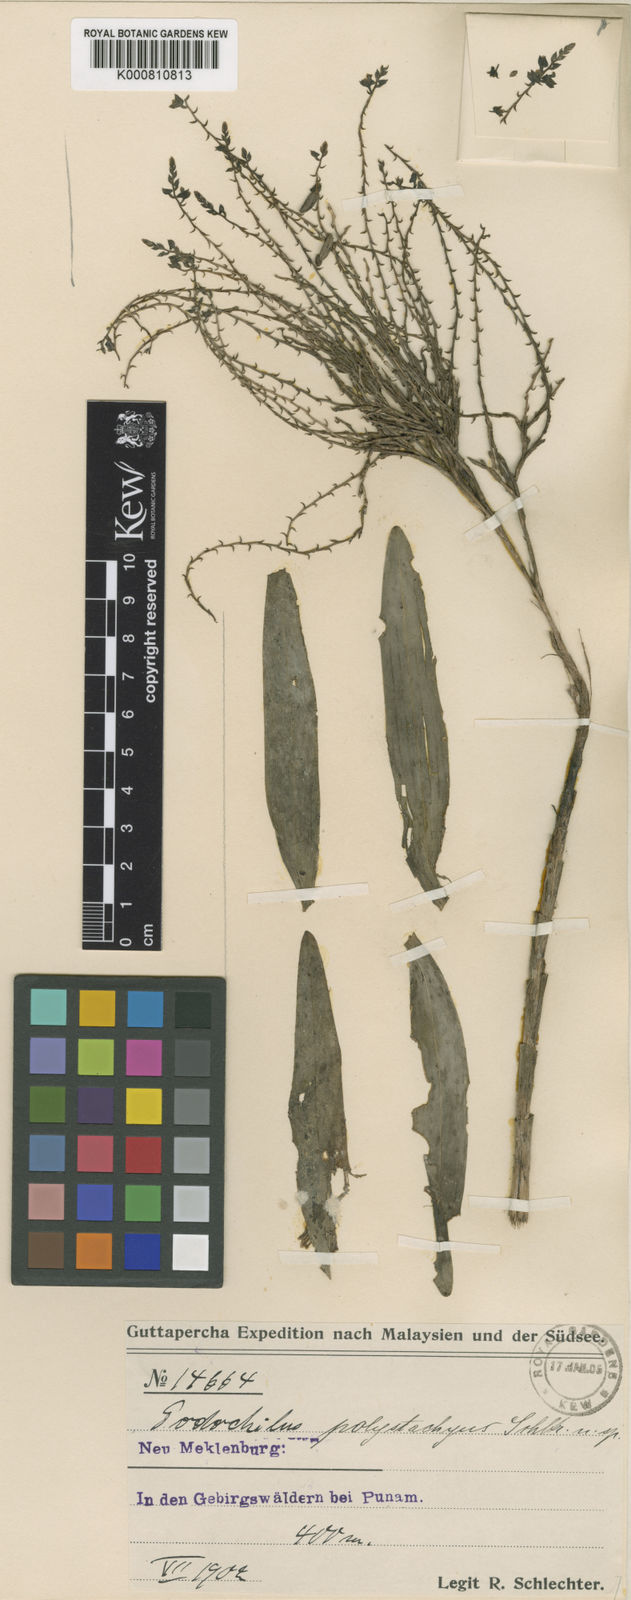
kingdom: Plantae
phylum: Tracheophyta
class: Liliopsida
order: Asparagales
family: Orchidaceae
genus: Appendicula
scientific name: Appendicula polystachya
